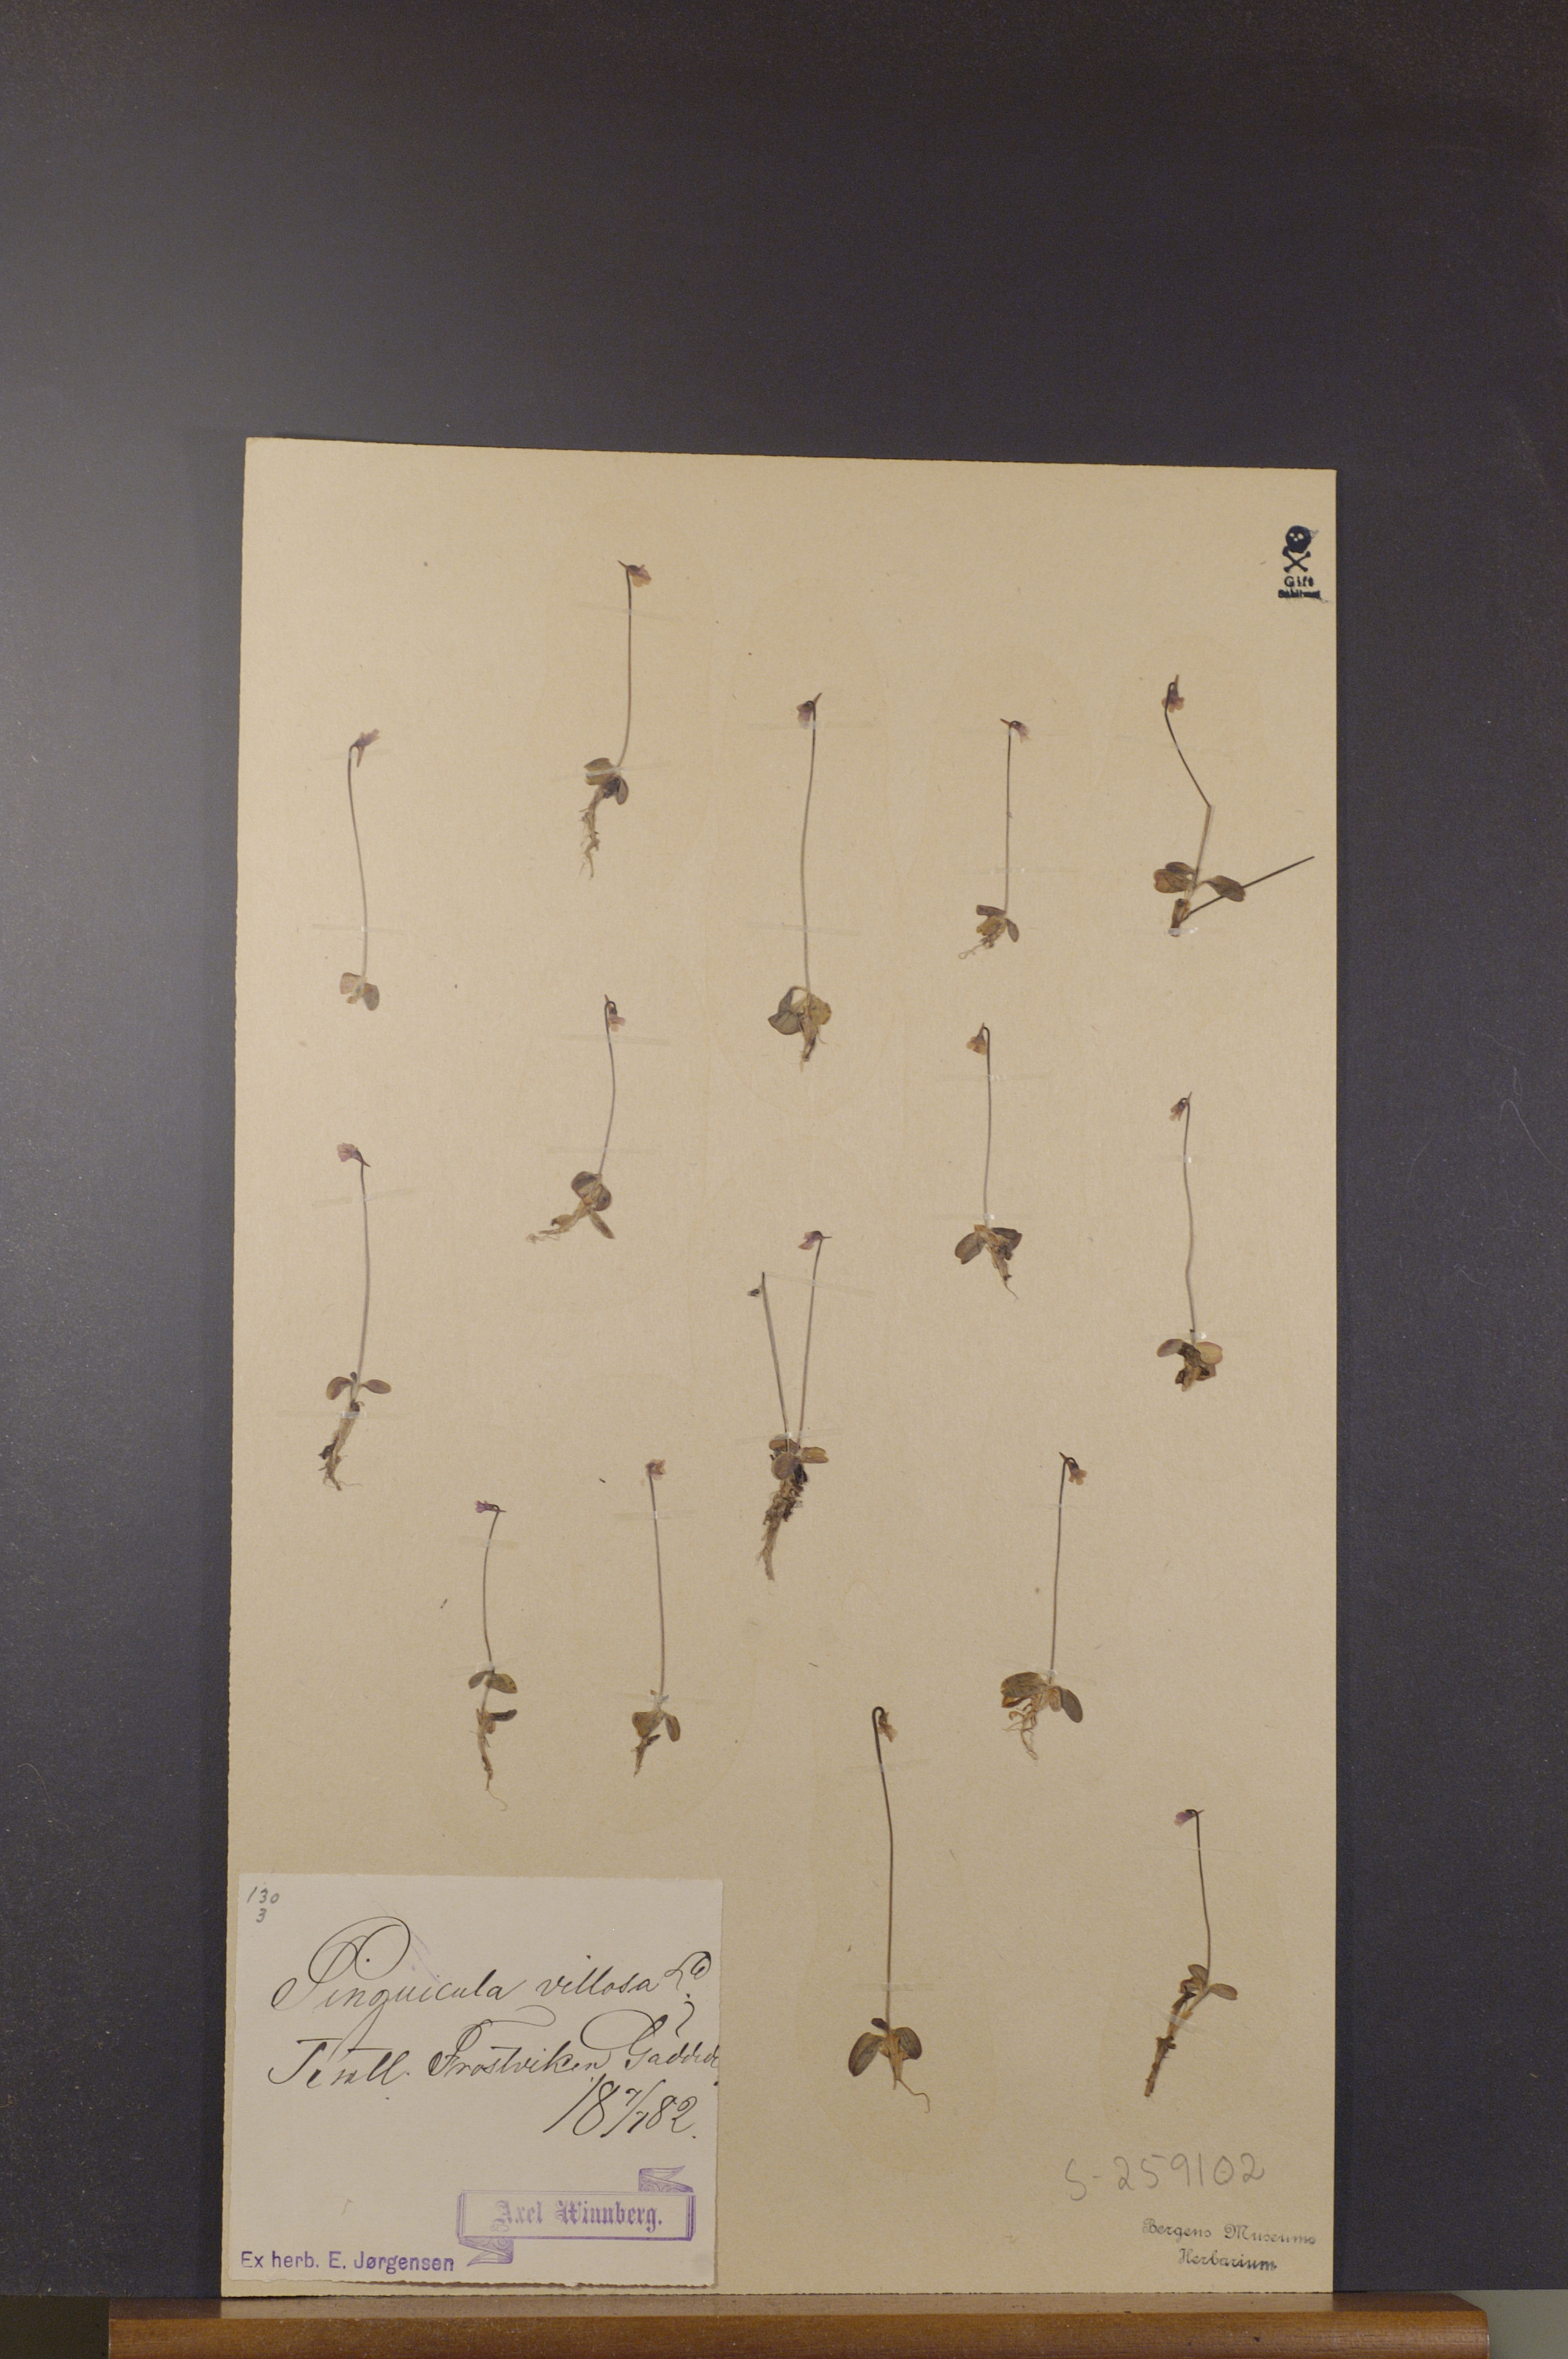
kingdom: Plantae
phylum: Tracheophyta
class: Magnoliopsida
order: Lamiales
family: Lentibulariaceae
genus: Pinguicula
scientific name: Pinguicula villosa
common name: Hairy butterwort
